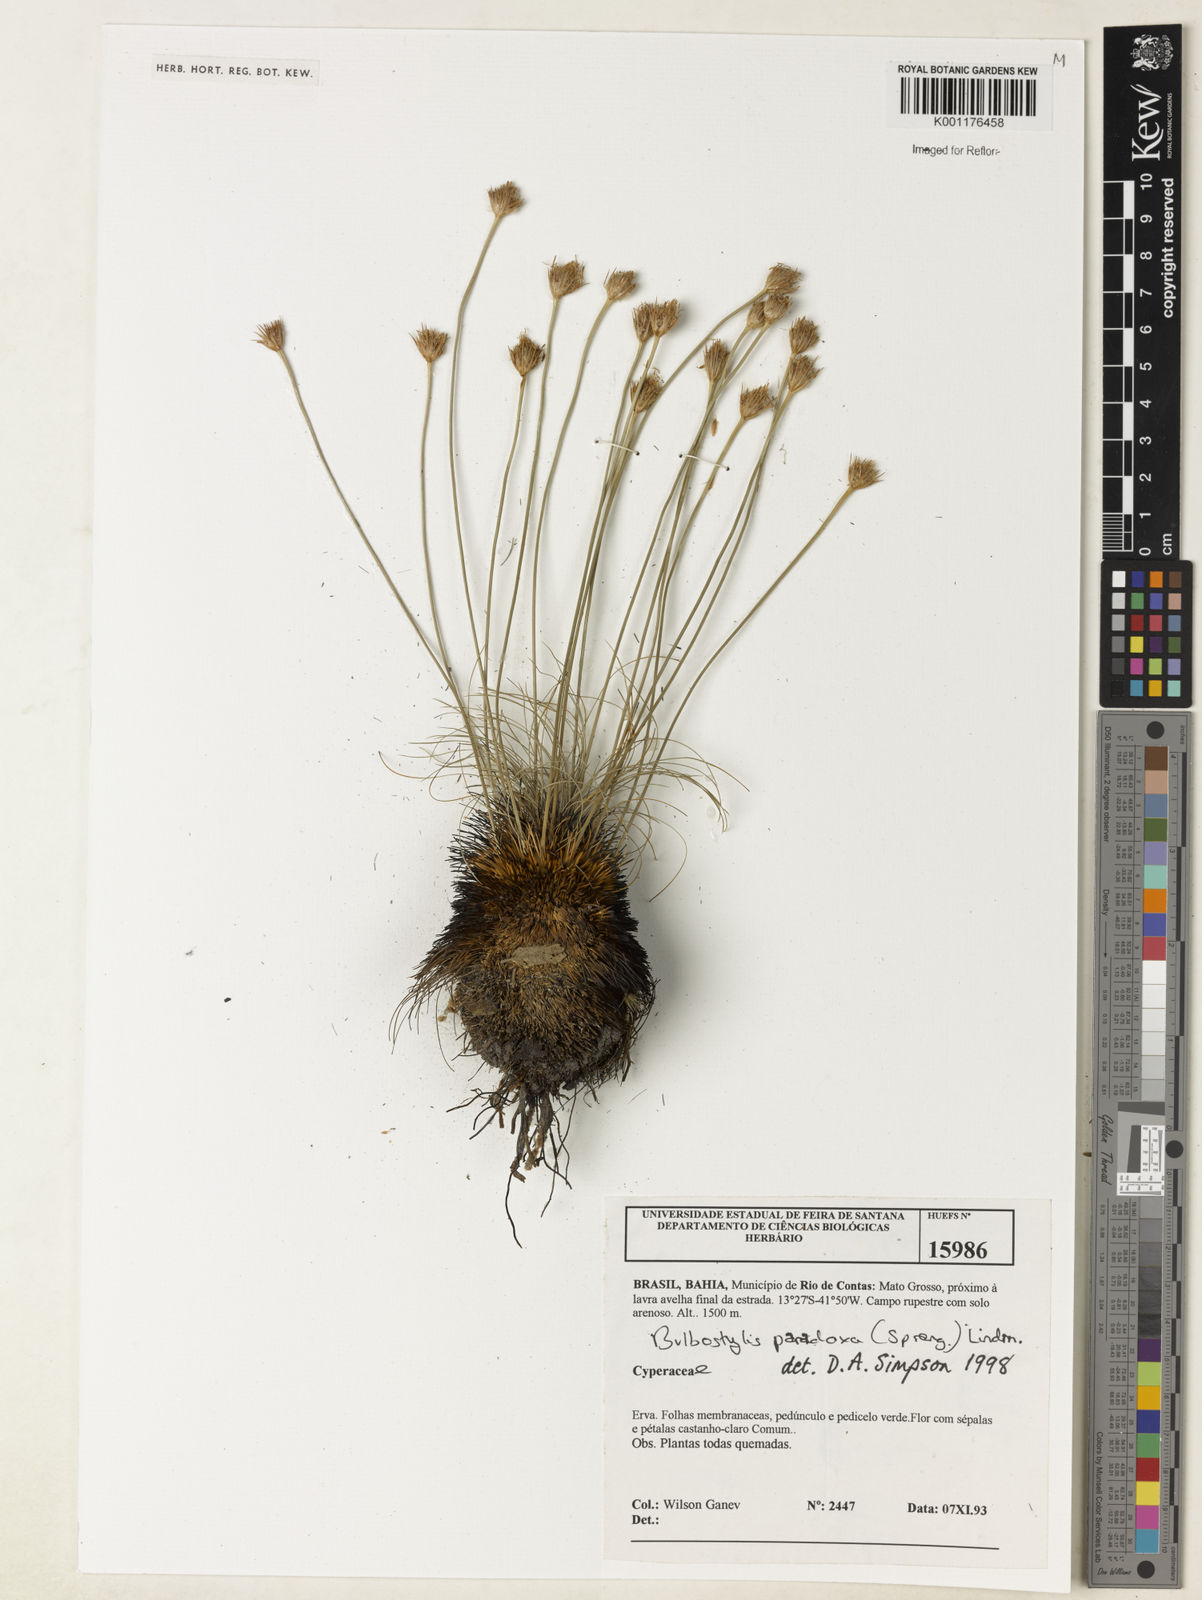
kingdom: Plantae
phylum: Tracheophyta
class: Liliopsida
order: Poales
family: Cyperaceae
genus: Bulbostylis
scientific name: Bulbostylis paradoxa
